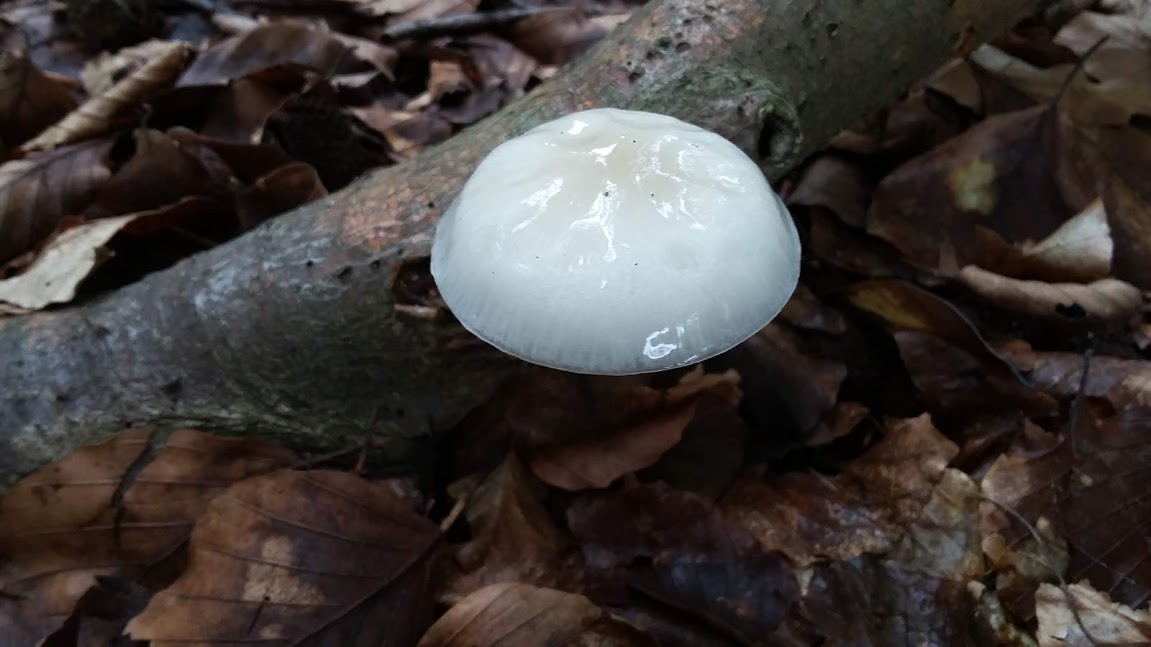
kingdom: Fungi
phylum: Basidiomycota
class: Agaricomycetes
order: Agaricales
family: Physalacriaceae
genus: Mucidula
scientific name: Mucidula mucida
